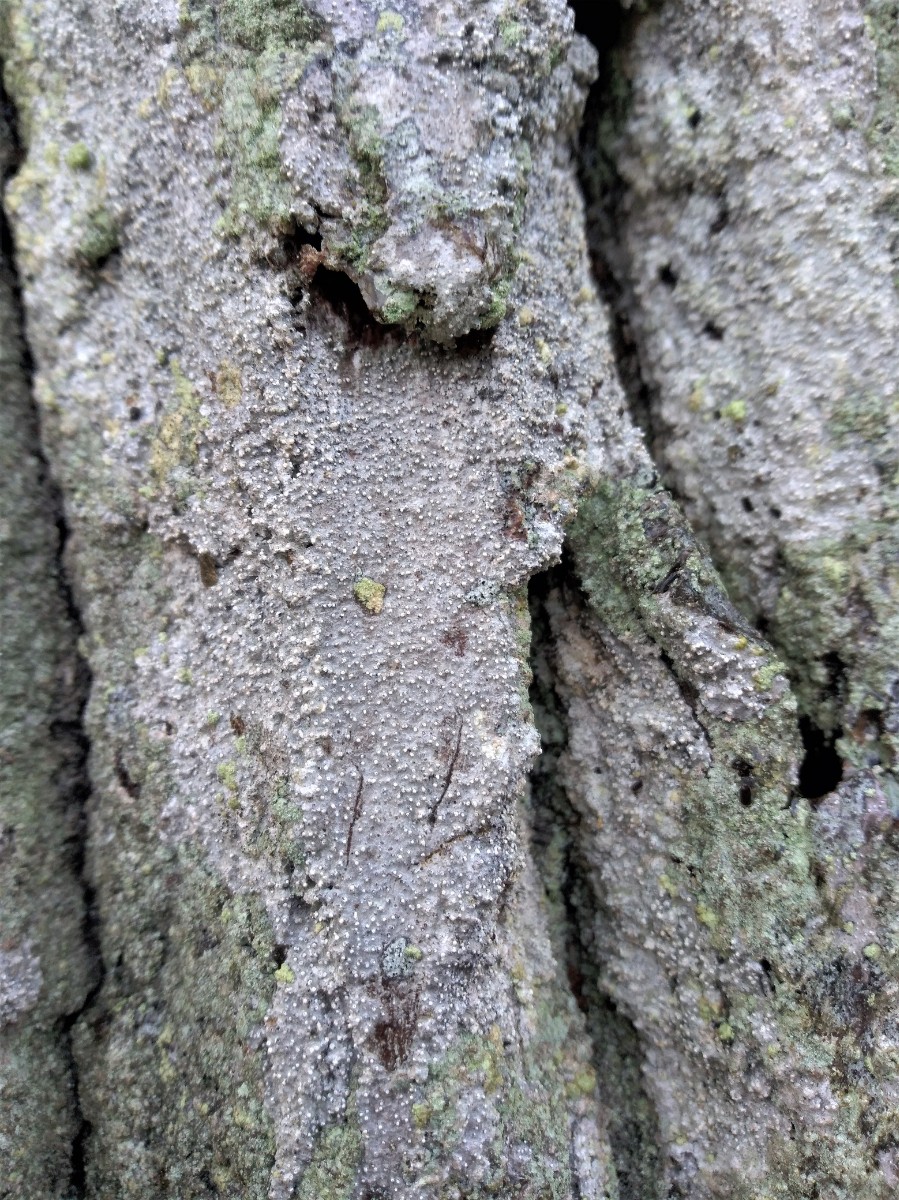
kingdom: Fungi
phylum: Ascomycota
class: Arthoniomycetes
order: Arthoniales
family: Roccellaceae
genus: Lecanactis
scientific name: Lecanactis abietina
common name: grå dugskivelav
